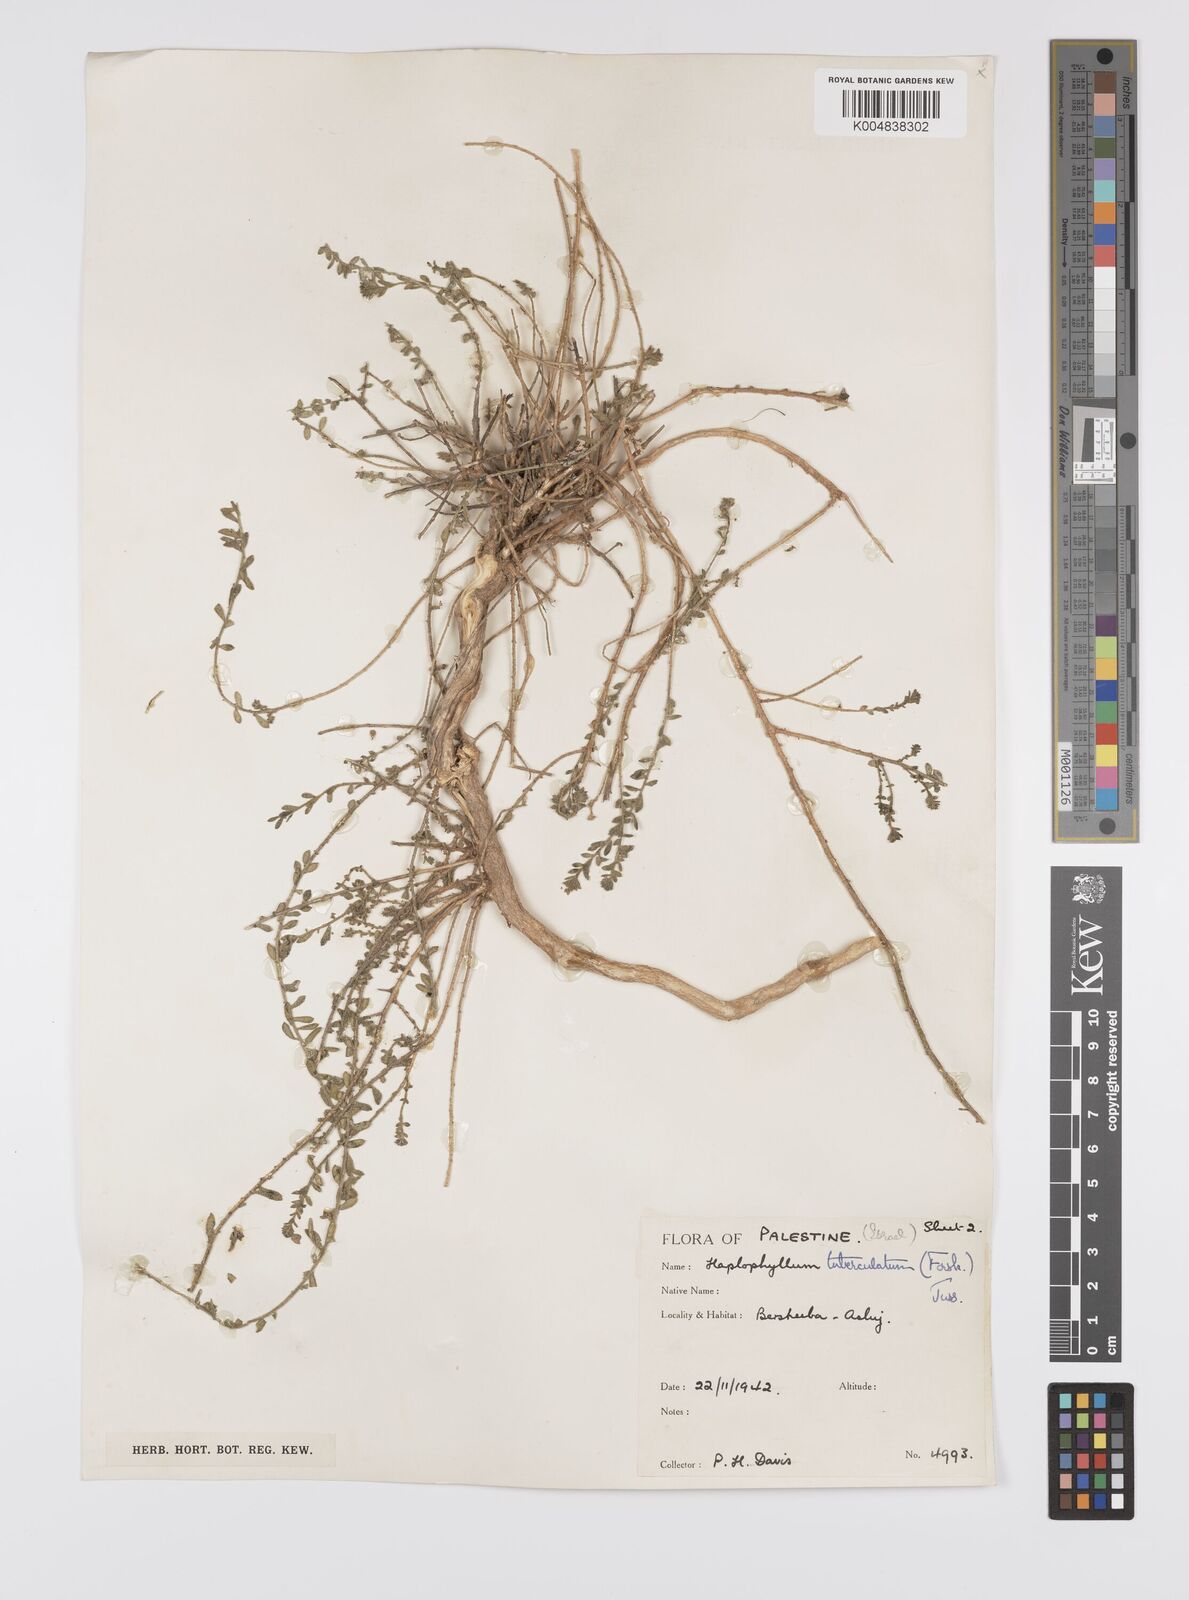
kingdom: Plantae
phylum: Tracheophyta
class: Magnoliopsida
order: Sapindales
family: Rutaceae
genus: Haplophyllum
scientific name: Haplophyllum tuberculatum
